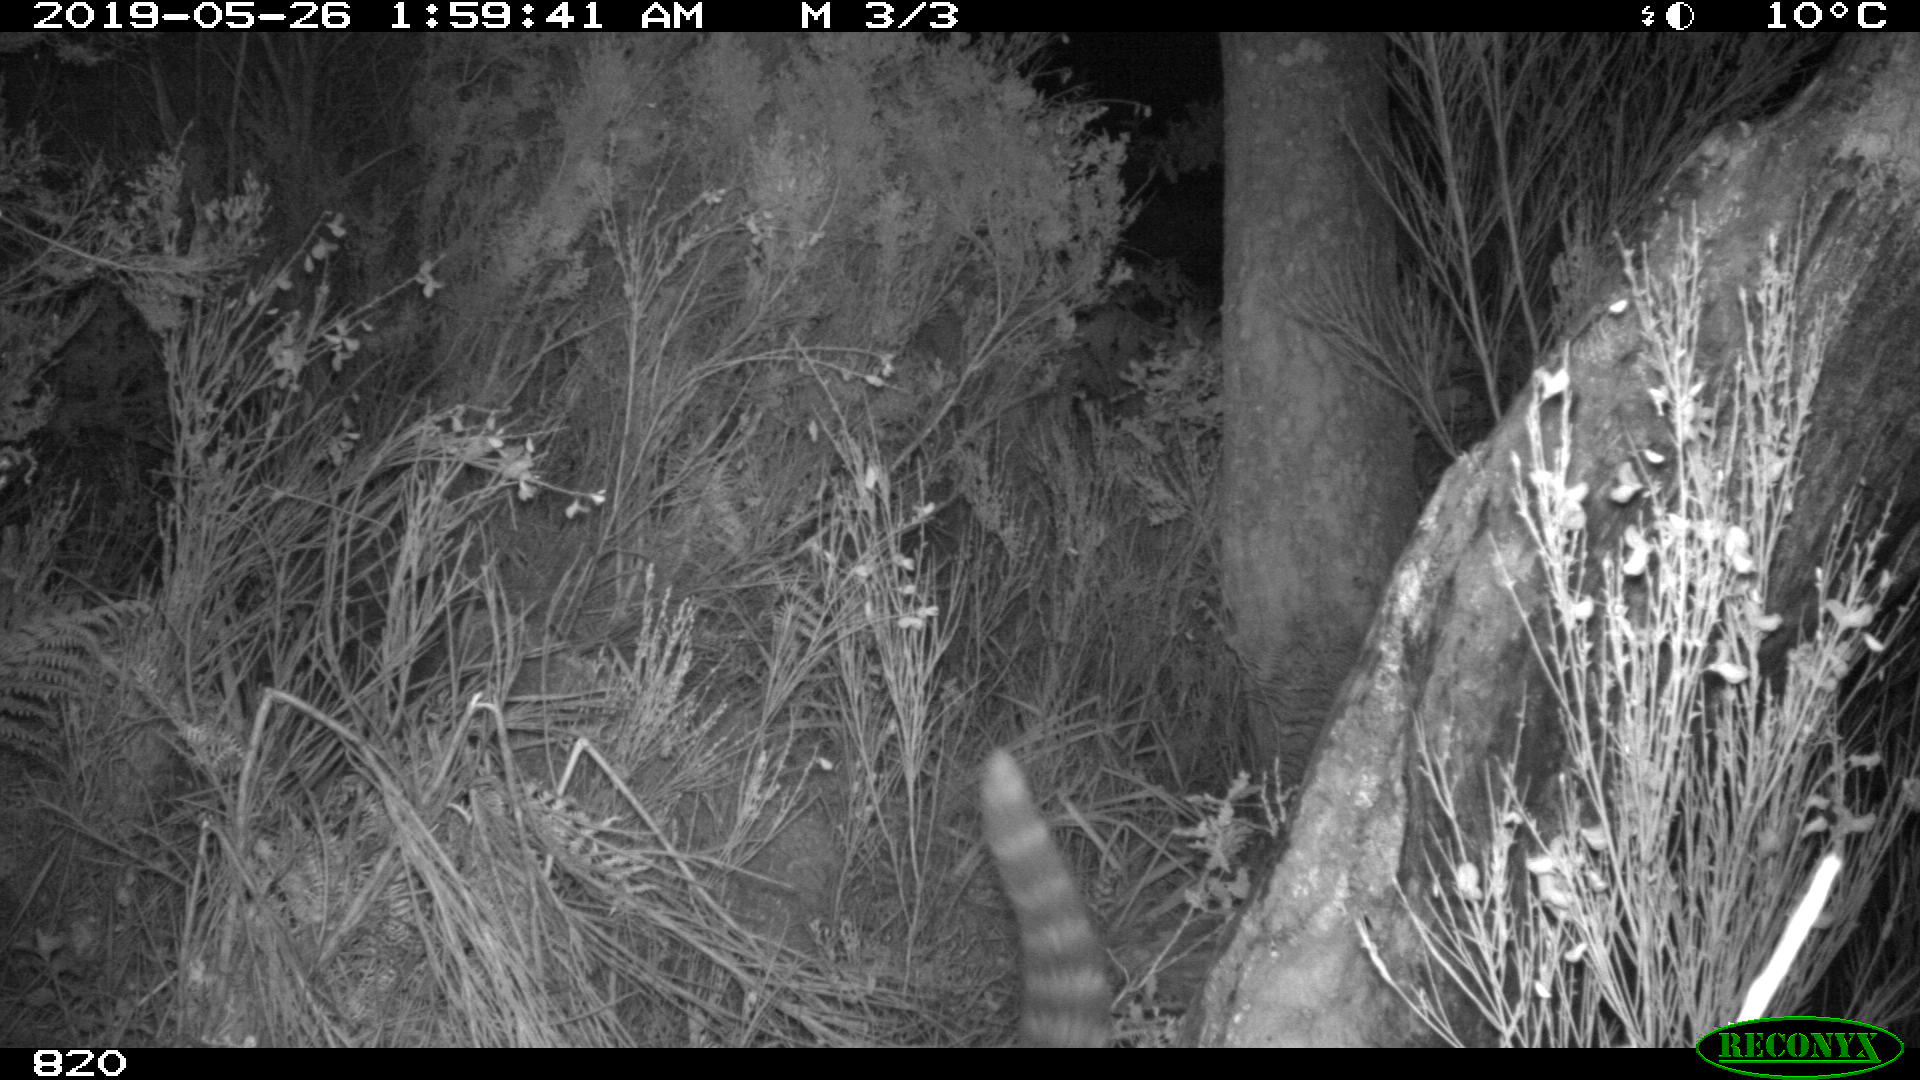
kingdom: Animalia
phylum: Chordata
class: Mammalia
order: Carnivora
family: Viverridae
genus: Genetta
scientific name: Genetta genetta
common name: Common genet
